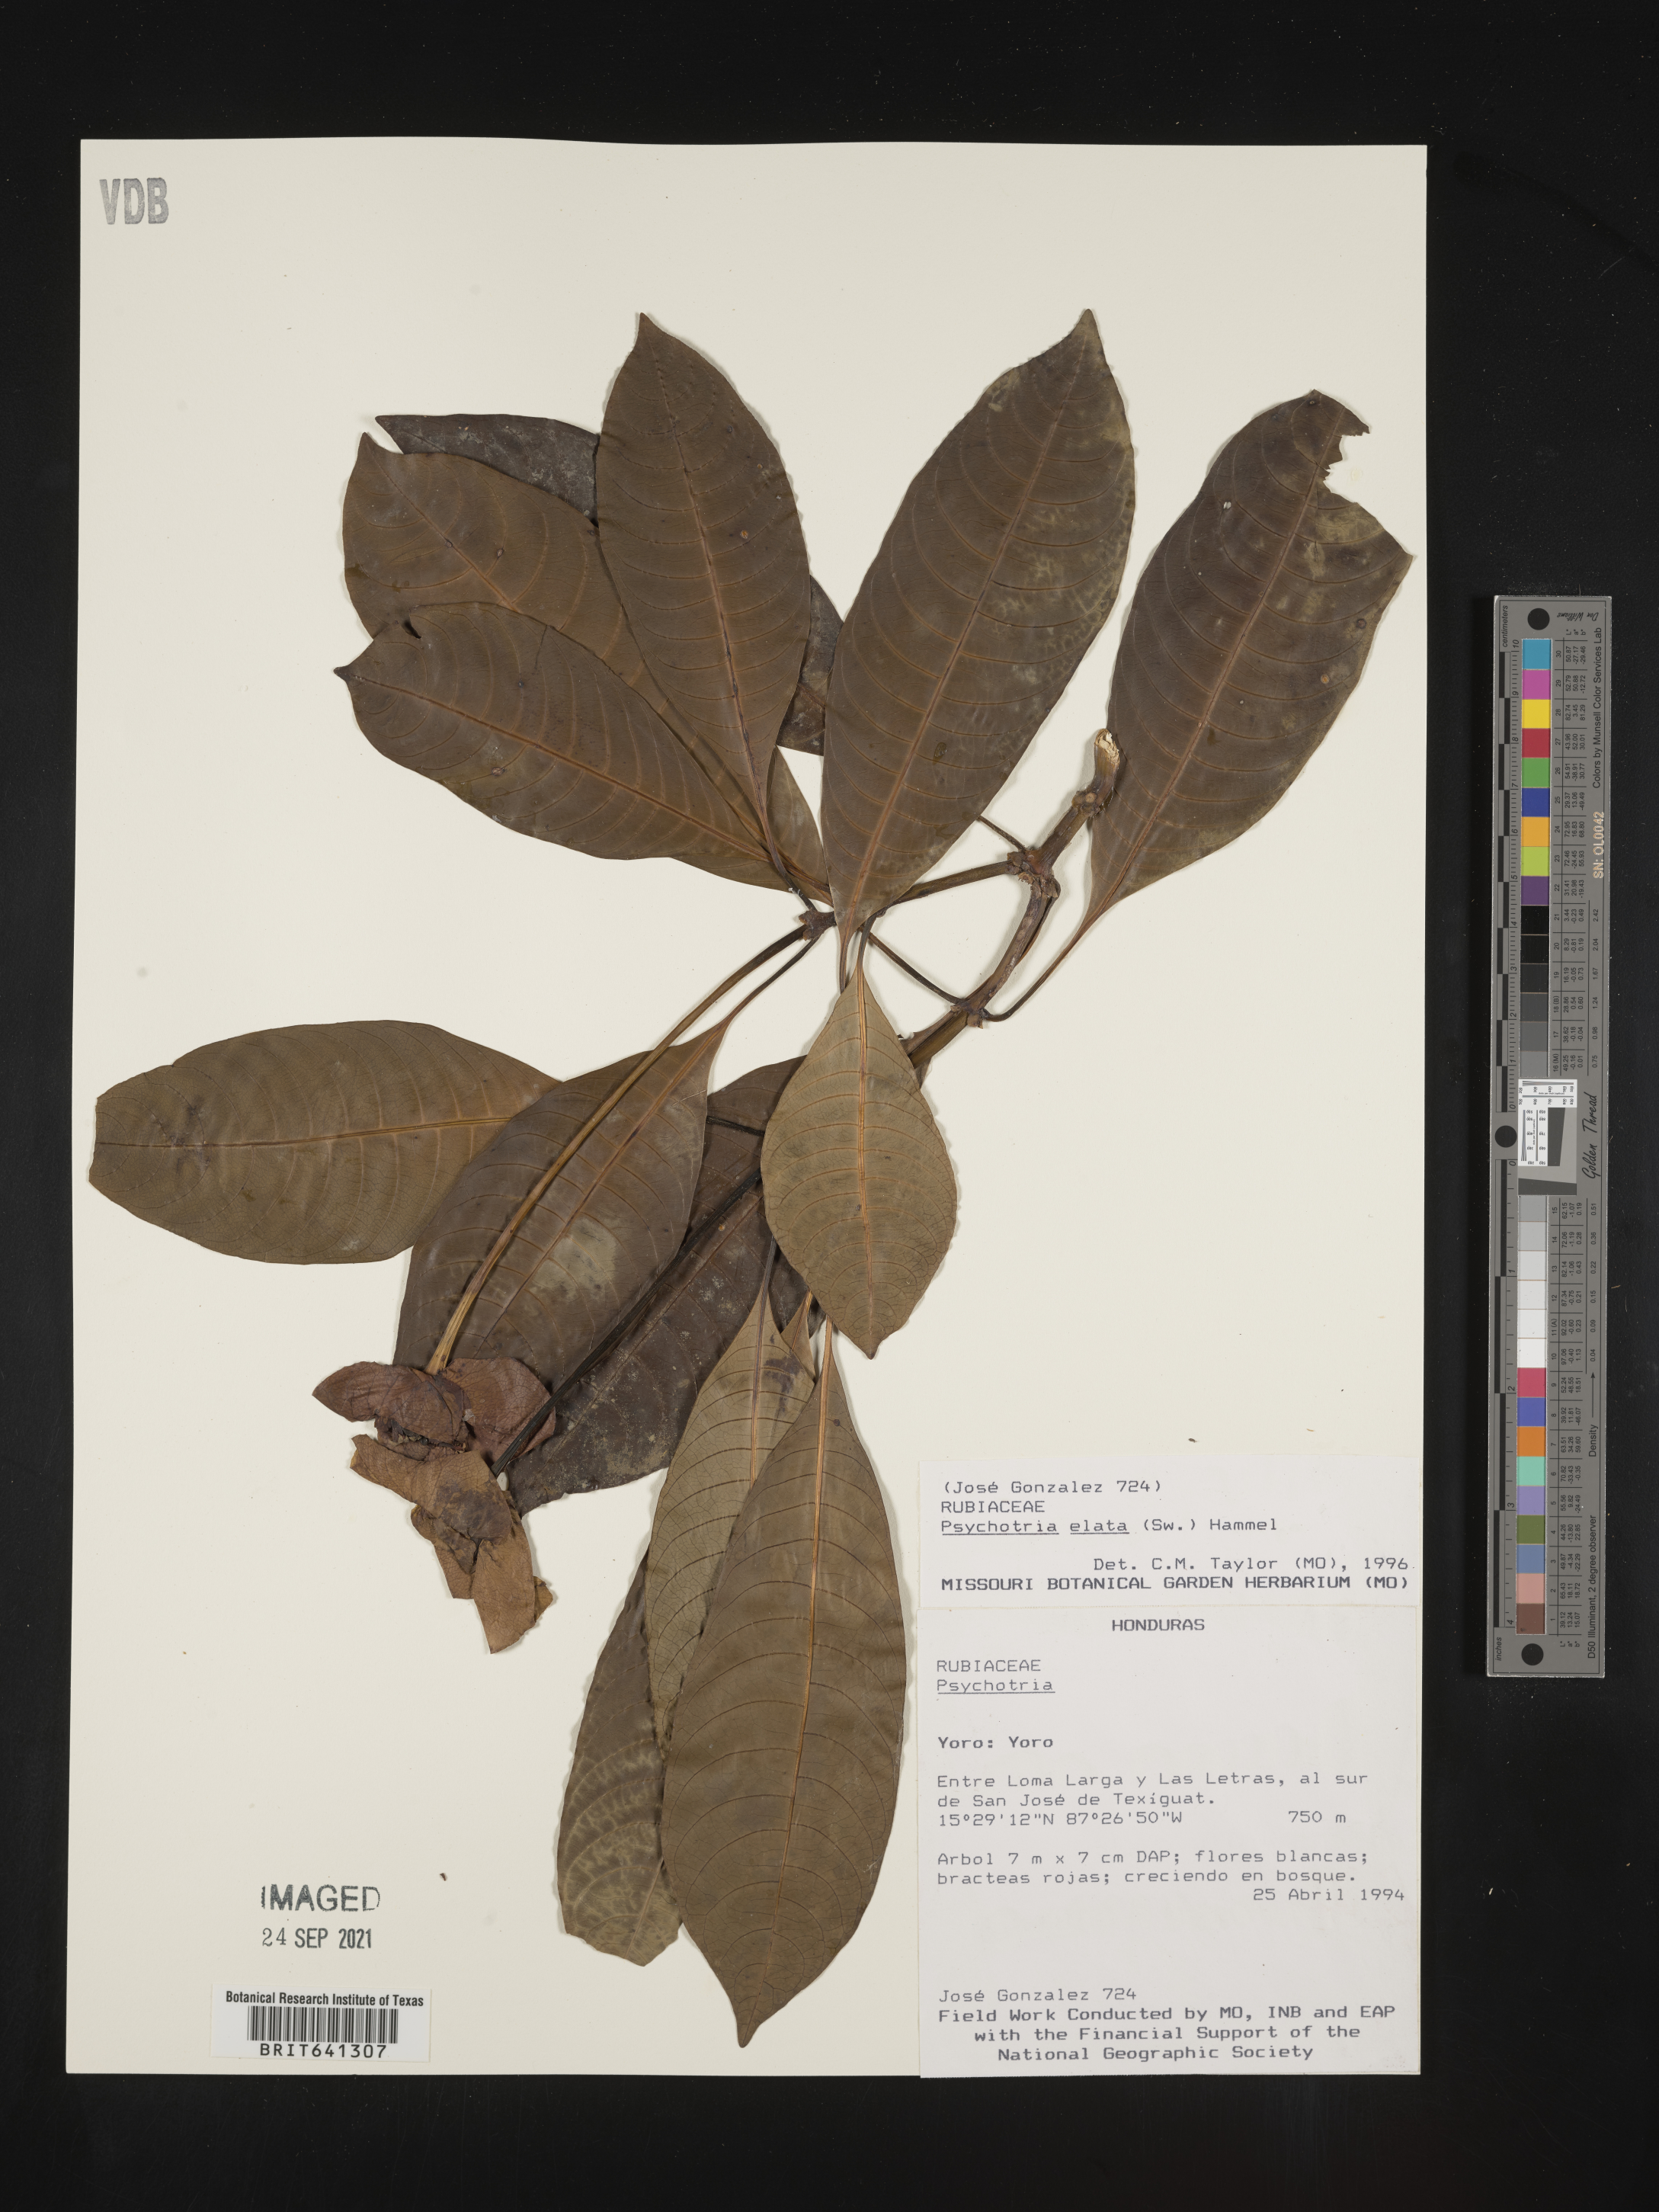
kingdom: Plantae
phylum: Tracheophyta
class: Magnoliopsida
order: Gentianales
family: Rubiaceae
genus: Psychotria
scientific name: Psychotria
